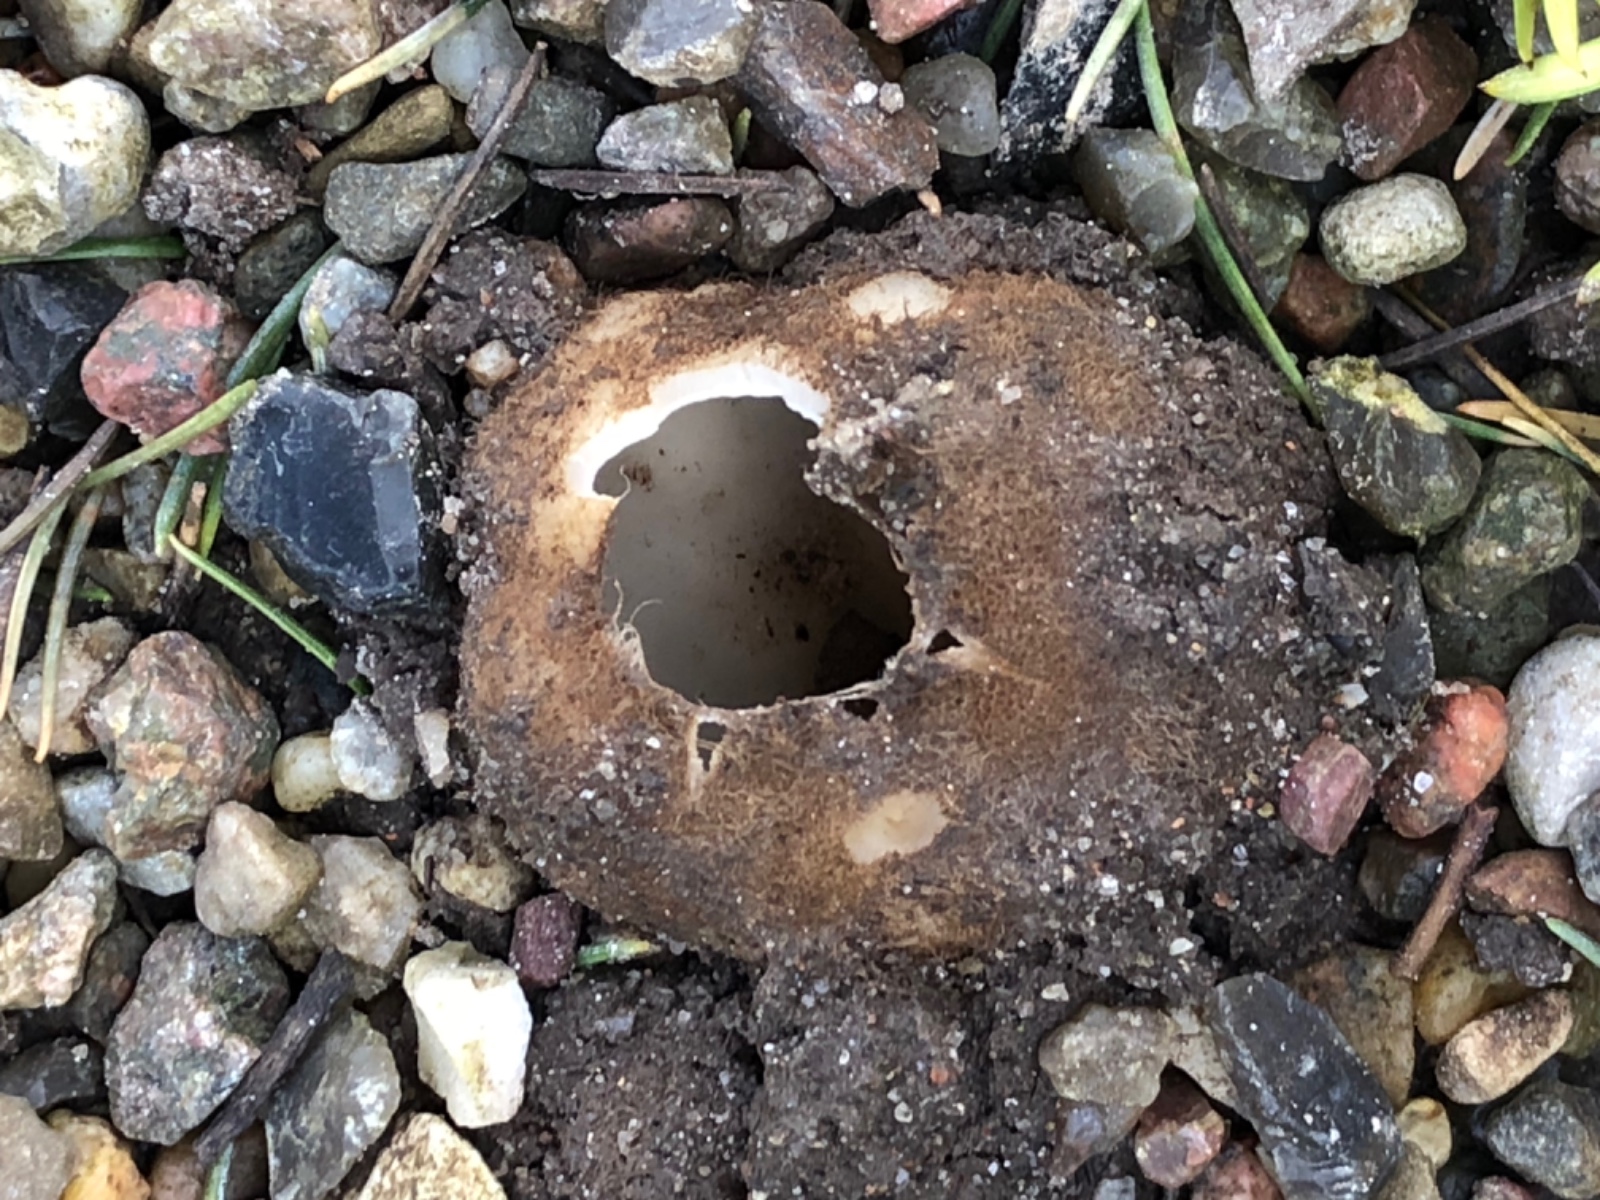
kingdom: Fungi
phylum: Ascomycota
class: Pezizomycetes
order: Pezizales
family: Pyronemataceae
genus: Geopora
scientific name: Geopora sumneriana
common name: vår-jordbæger
